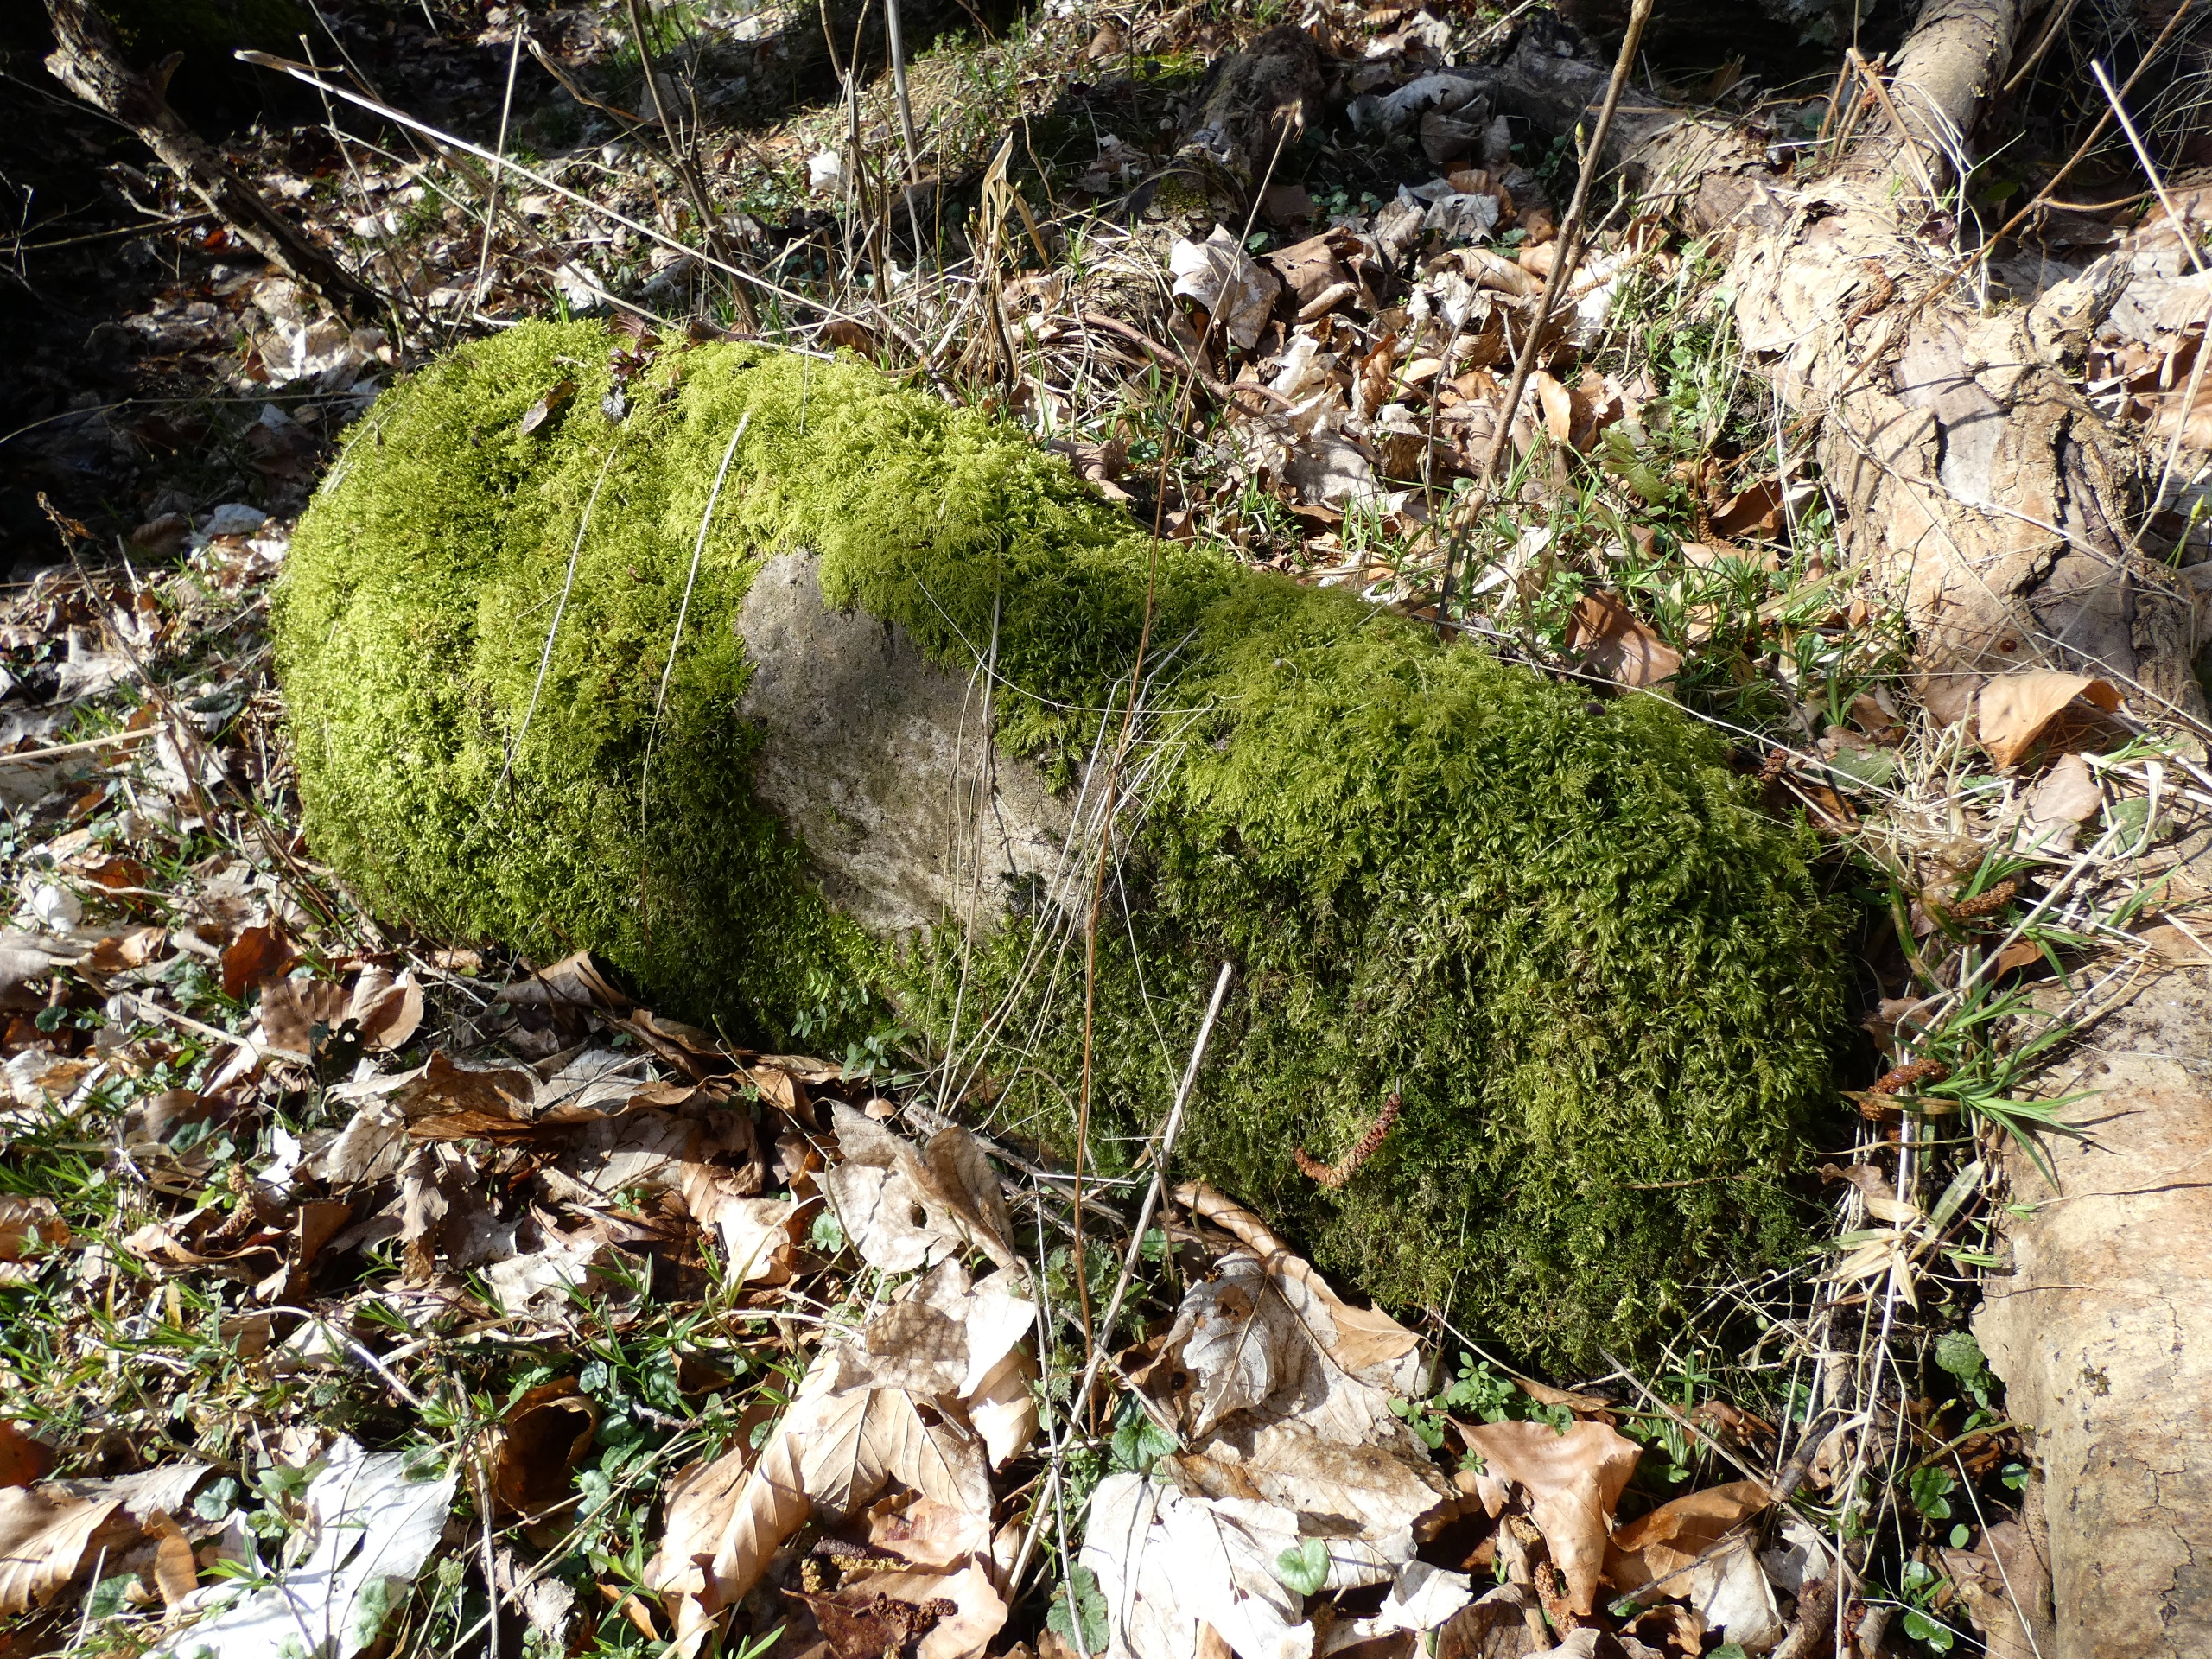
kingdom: Plantae
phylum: Bryophyta
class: Bryopsida
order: Hypnales
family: Lembophyllaceae
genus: Isothecium
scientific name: Isothecium alopecuroides
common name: Stor stammemos
